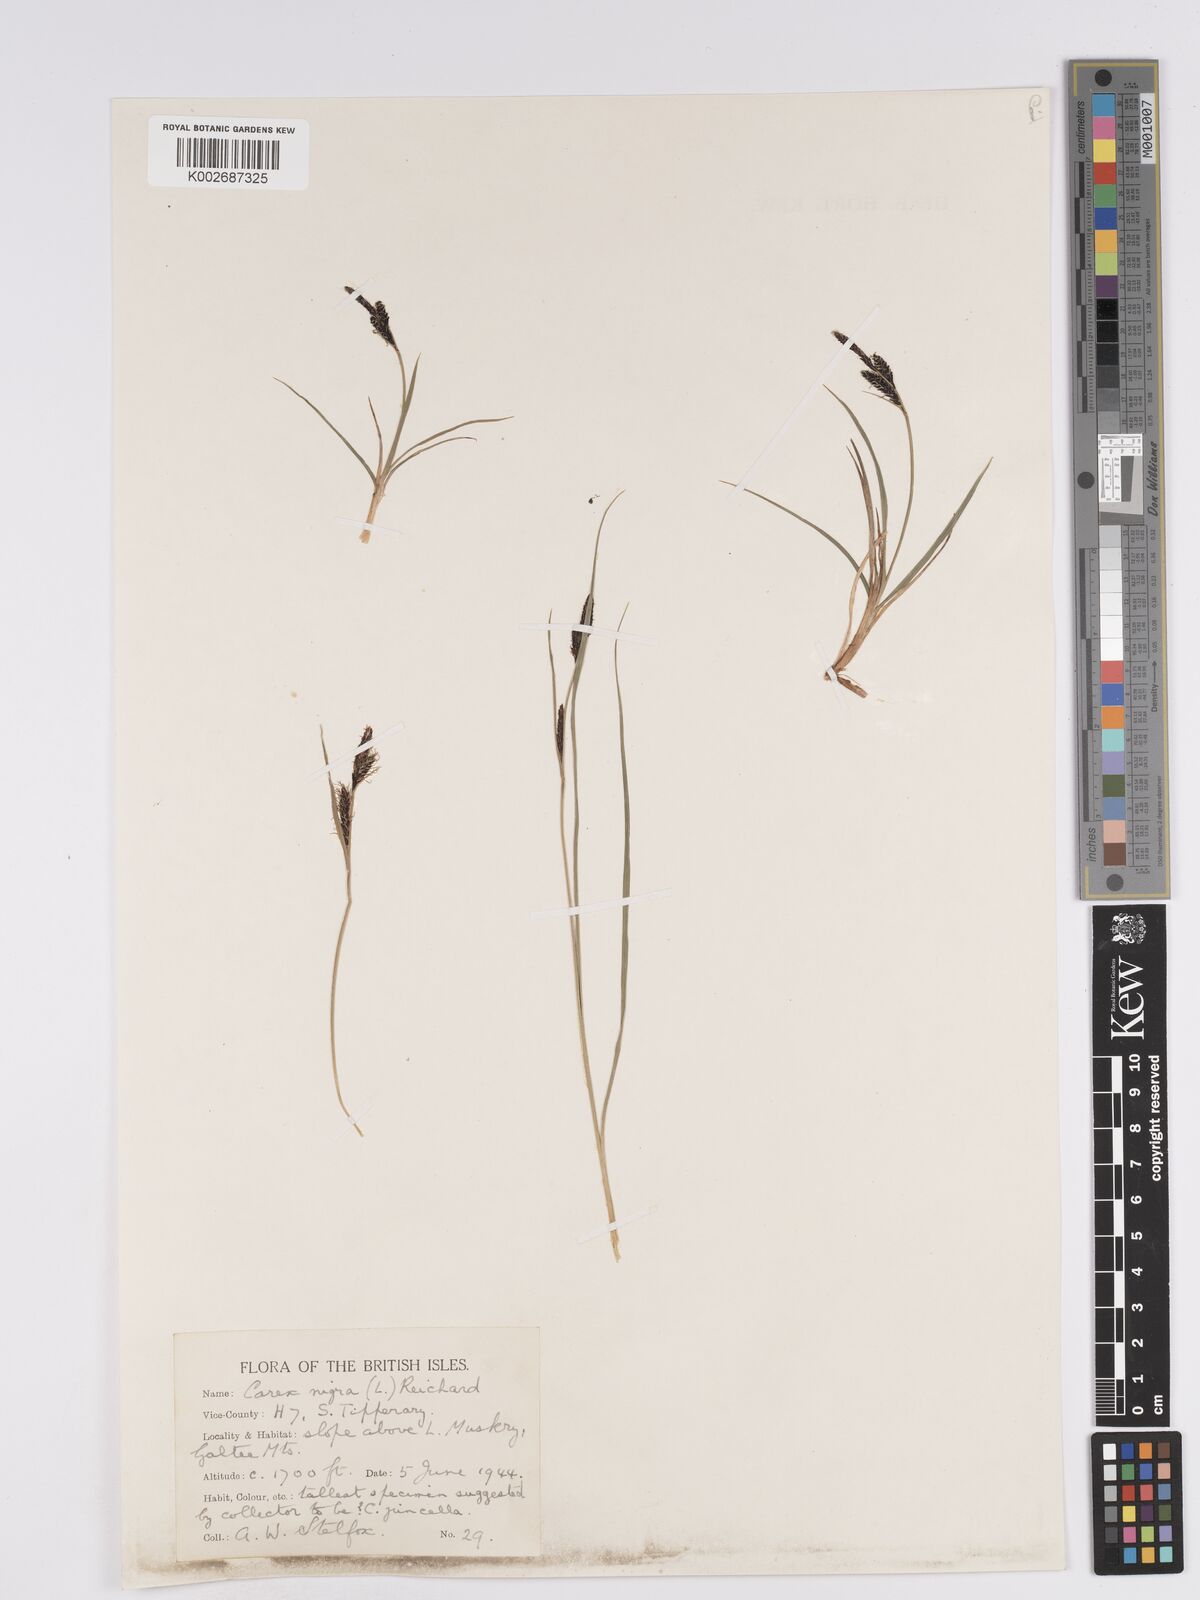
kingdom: Plantae
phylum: Tracheophyta
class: Liliopsida
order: Poales
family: Cyperaceae
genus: Carex
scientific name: Carex nigra
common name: Common sedge
